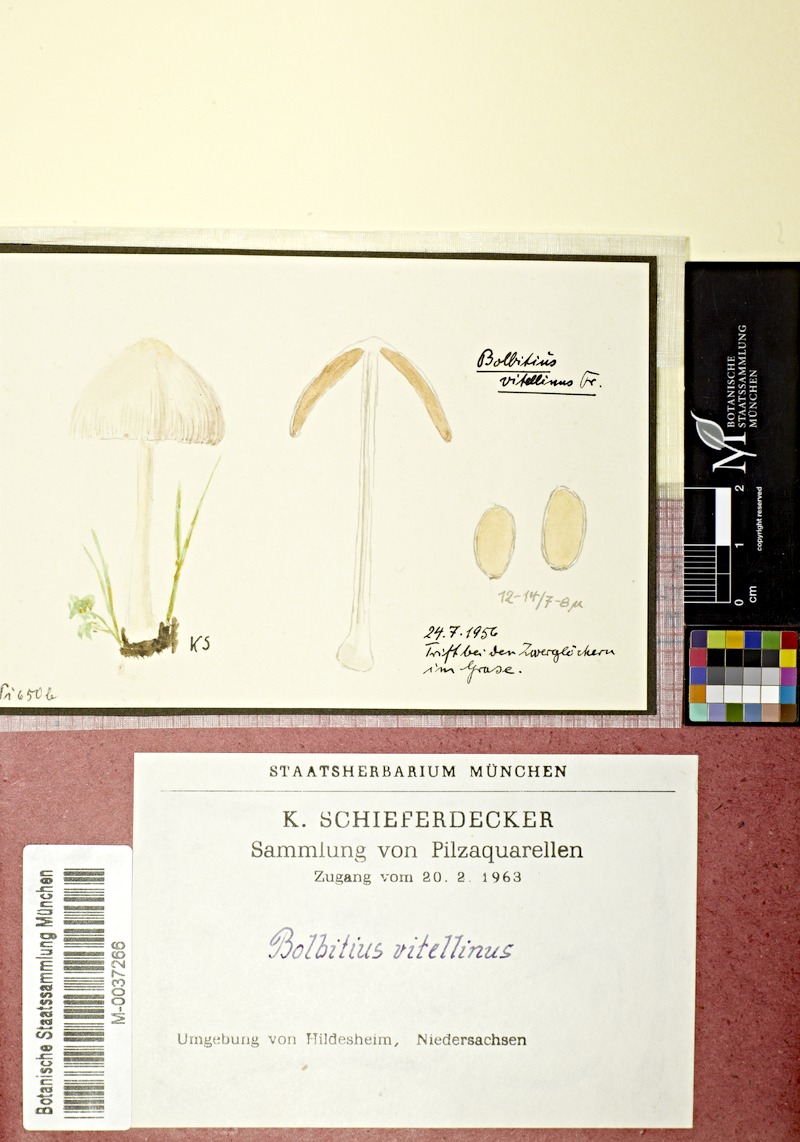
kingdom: Fungi
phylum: Basidiomycota
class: Agaricomycetes
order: Agaricales
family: Bolbitiaceae
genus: Bolbitius
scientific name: Bolbitius titubans
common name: Yellow fieldcap
